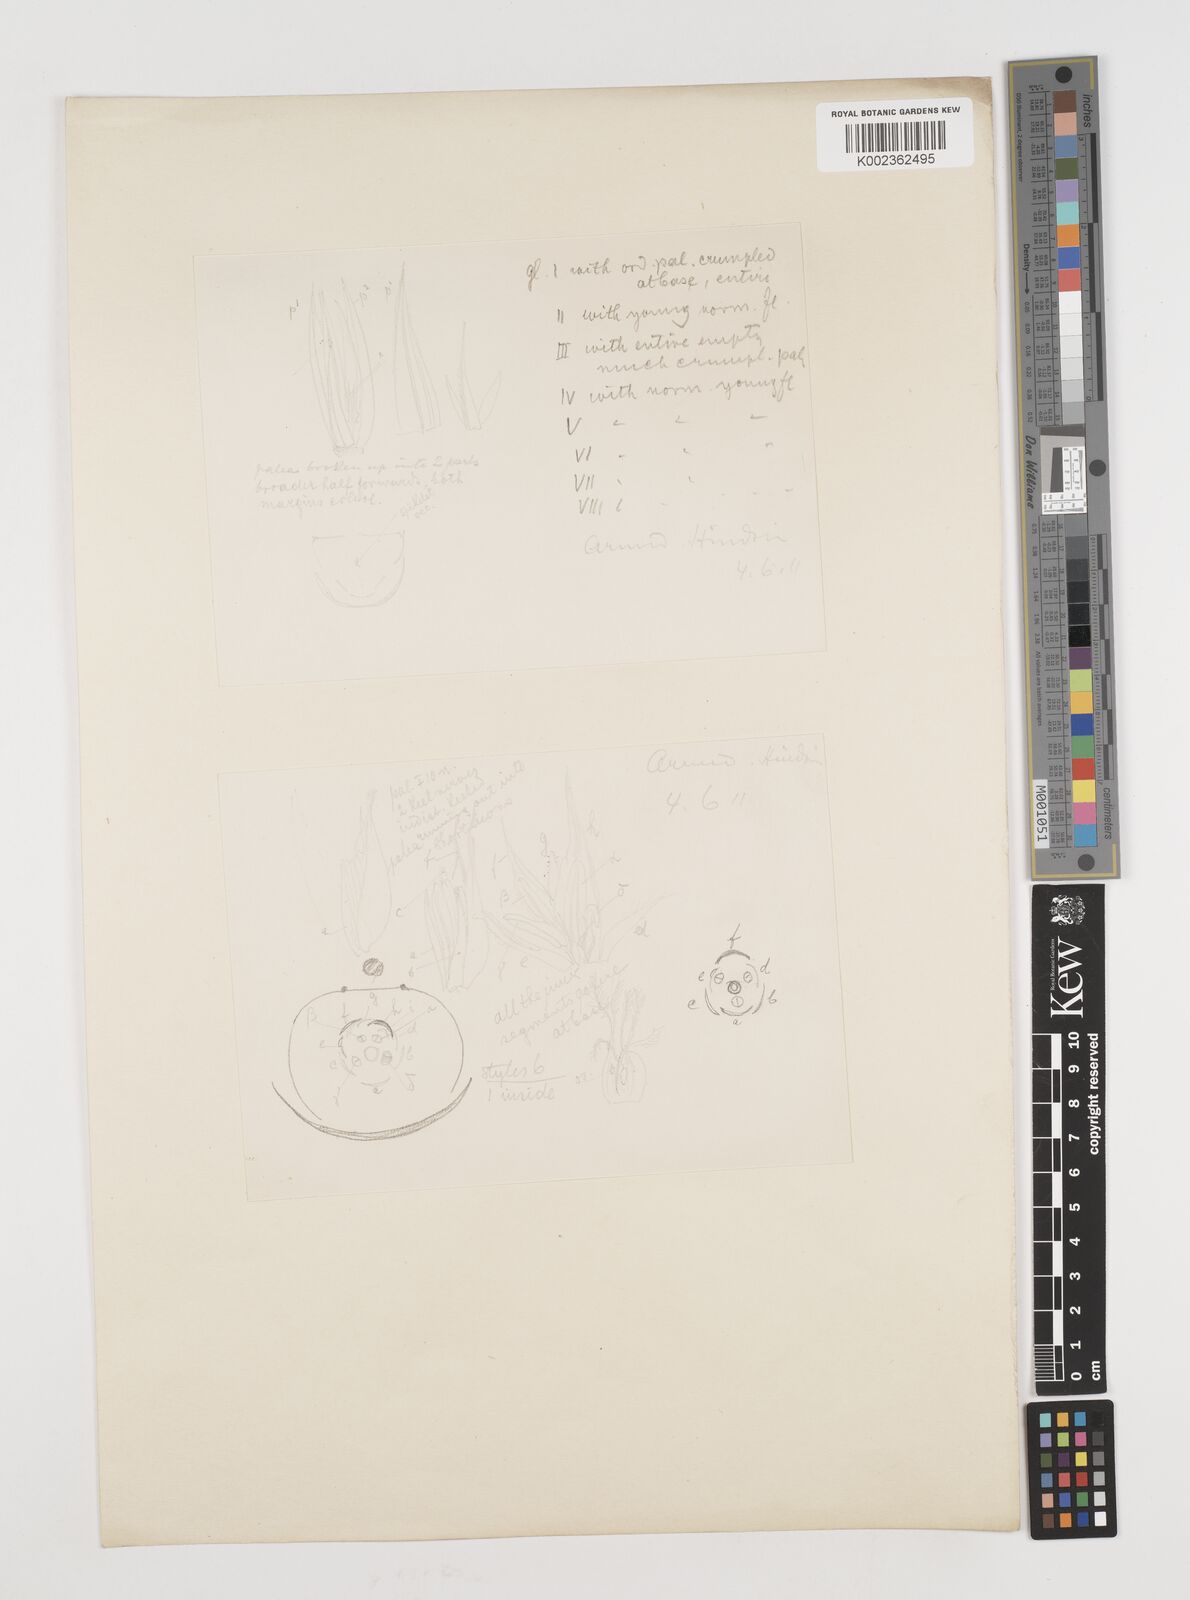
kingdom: Plantae
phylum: Tracheophyta
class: Liliopsida
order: Poales
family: Poaceae
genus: Pseudosasa
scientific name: Pseudosasa hindsii
